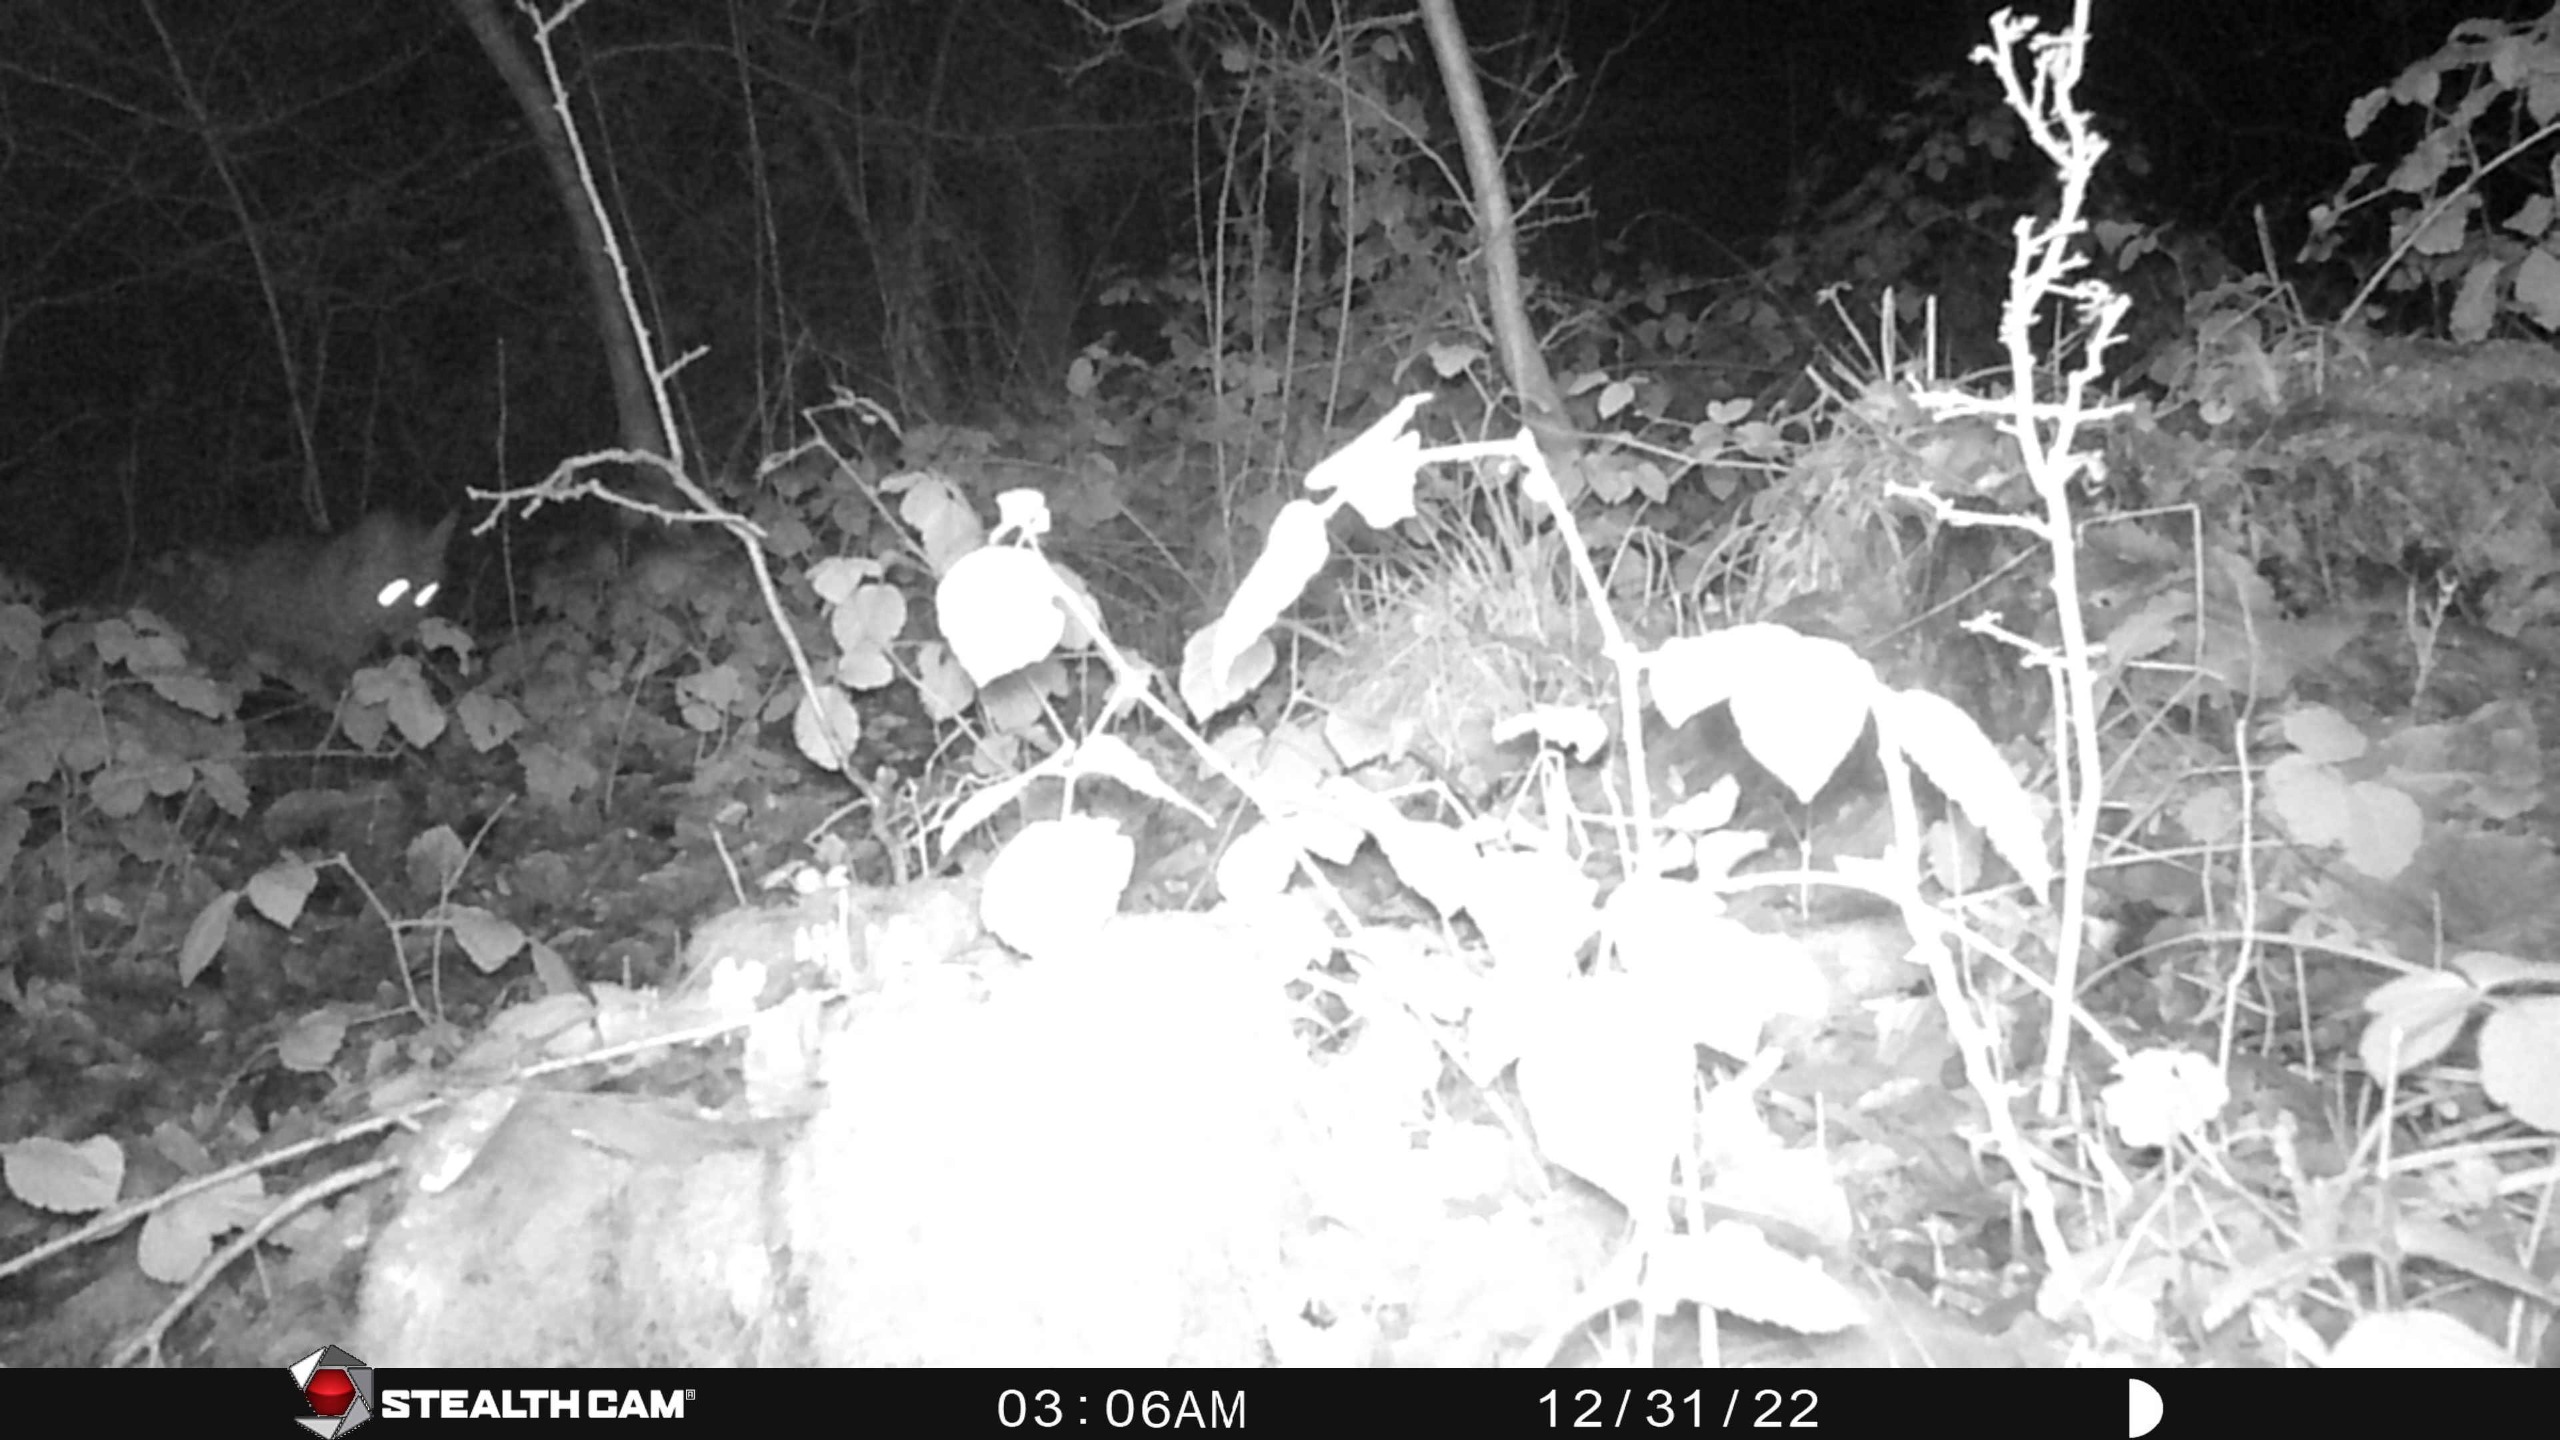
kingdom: Animalia
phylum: Chordata
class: Mammalia
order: Carnivora
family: Canidae
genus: Vulpes
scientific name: Vulpes vulpes
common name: Ræv
